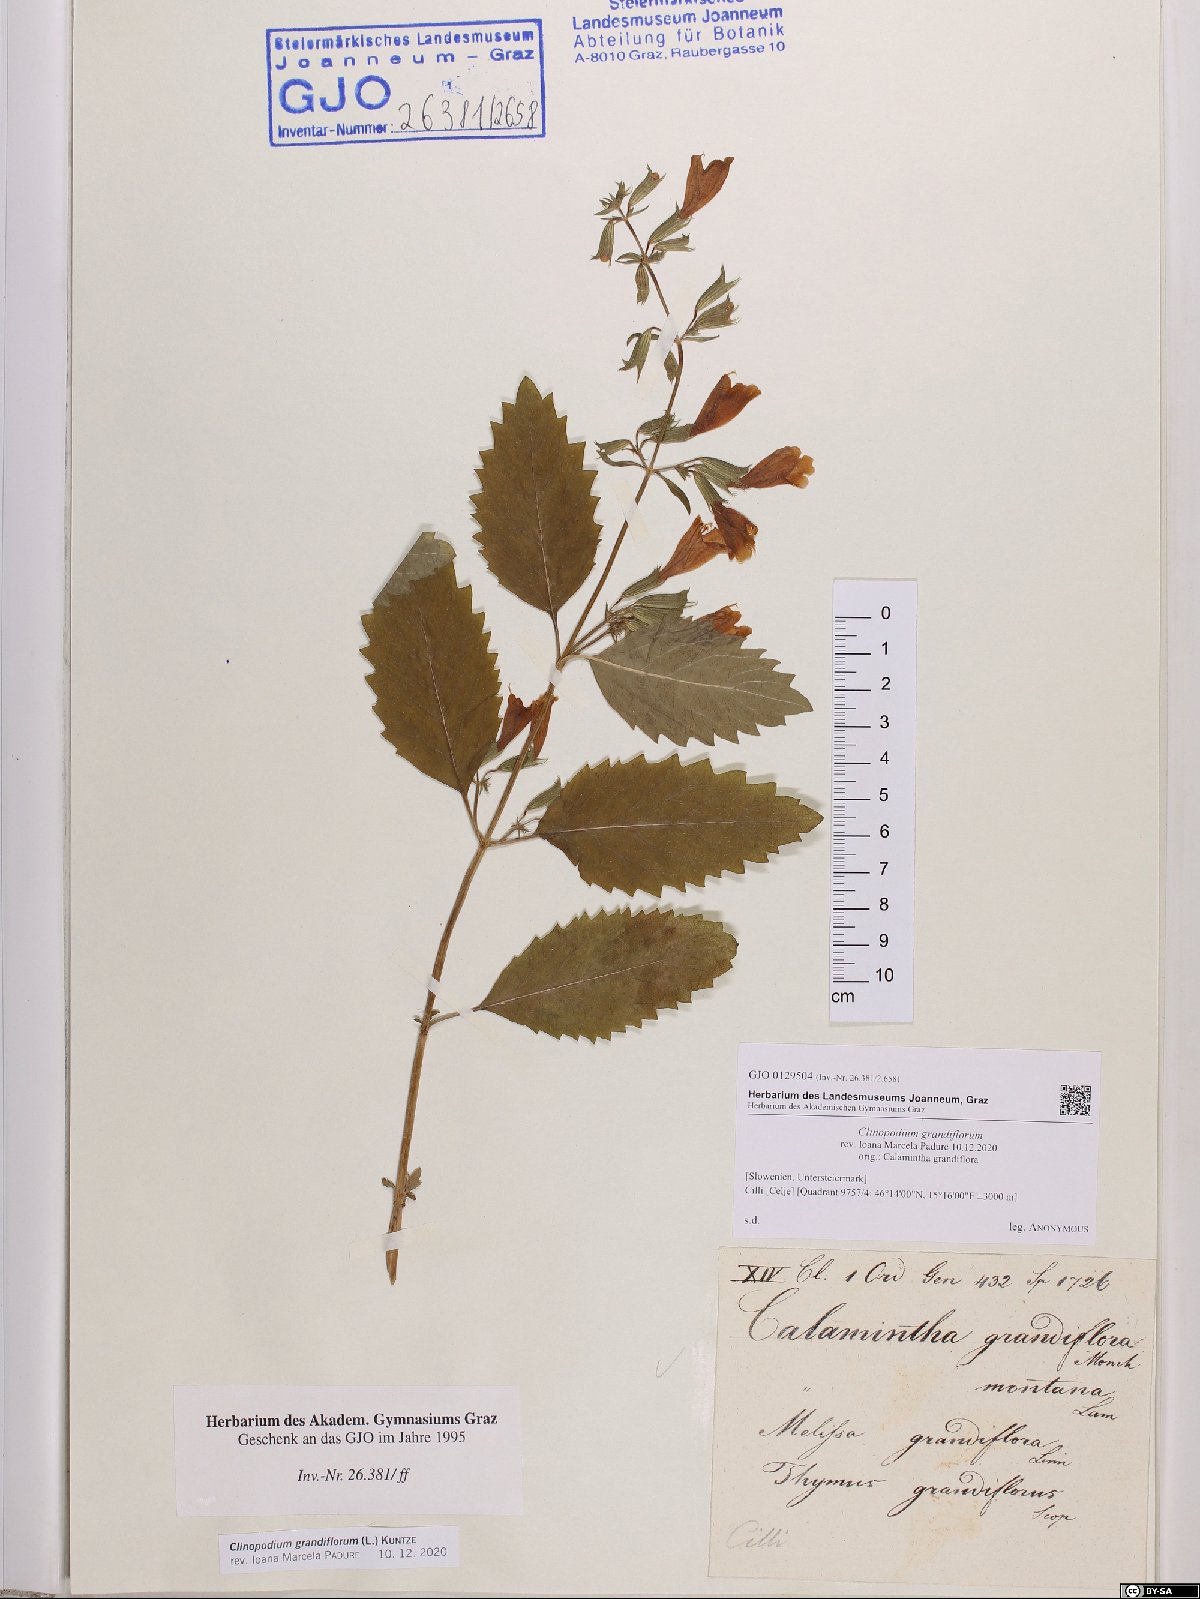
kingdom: Plantae
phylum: Tracheophyta
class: Magnoliopsida
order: Lamiales
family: Lamiaceae
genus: Clinopodium
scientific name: Clinopodium grandiflorum
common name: Greater calamint
